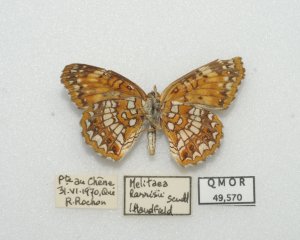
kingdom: Animalia
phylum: Arthropoda
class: Insecta
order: Lepidoptera
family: Nymphalidae
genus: Chlosyne
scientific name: Chlosyne harrisii
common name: Harris's Checkerspot
